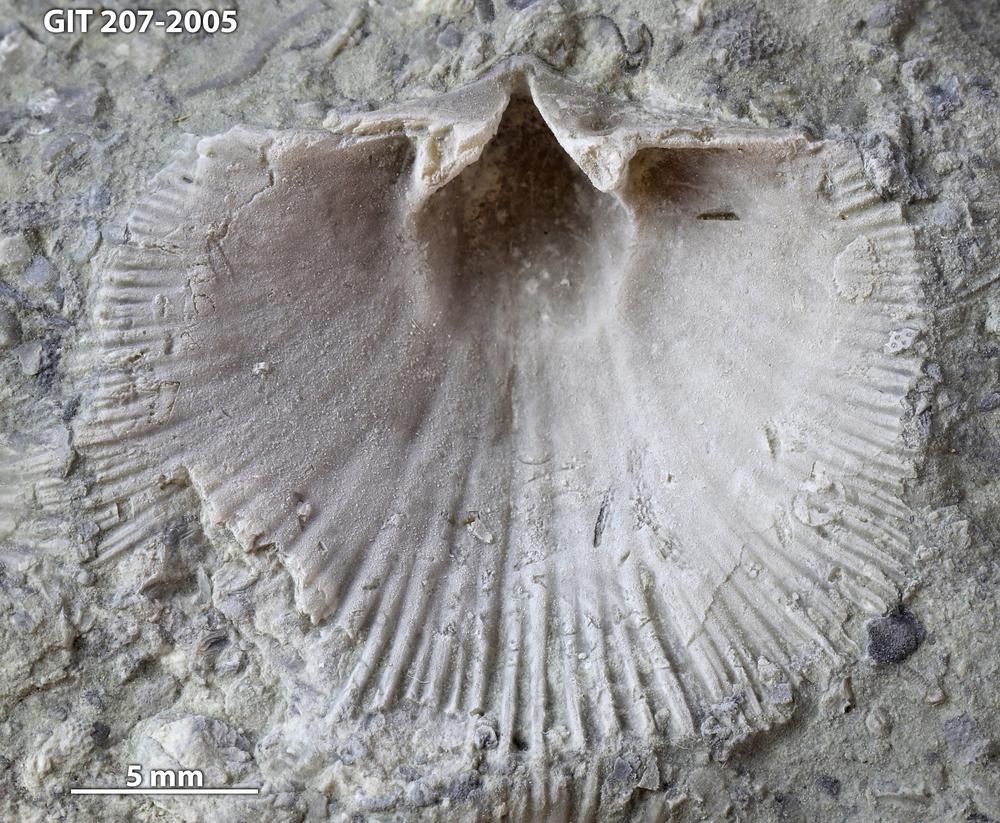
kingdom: Animalia
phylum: Brachiopoda
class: Rhynchonellata
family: Harknessellidae
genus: Horderleyella
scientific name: Horderleyella Dalmanella kegelensis
